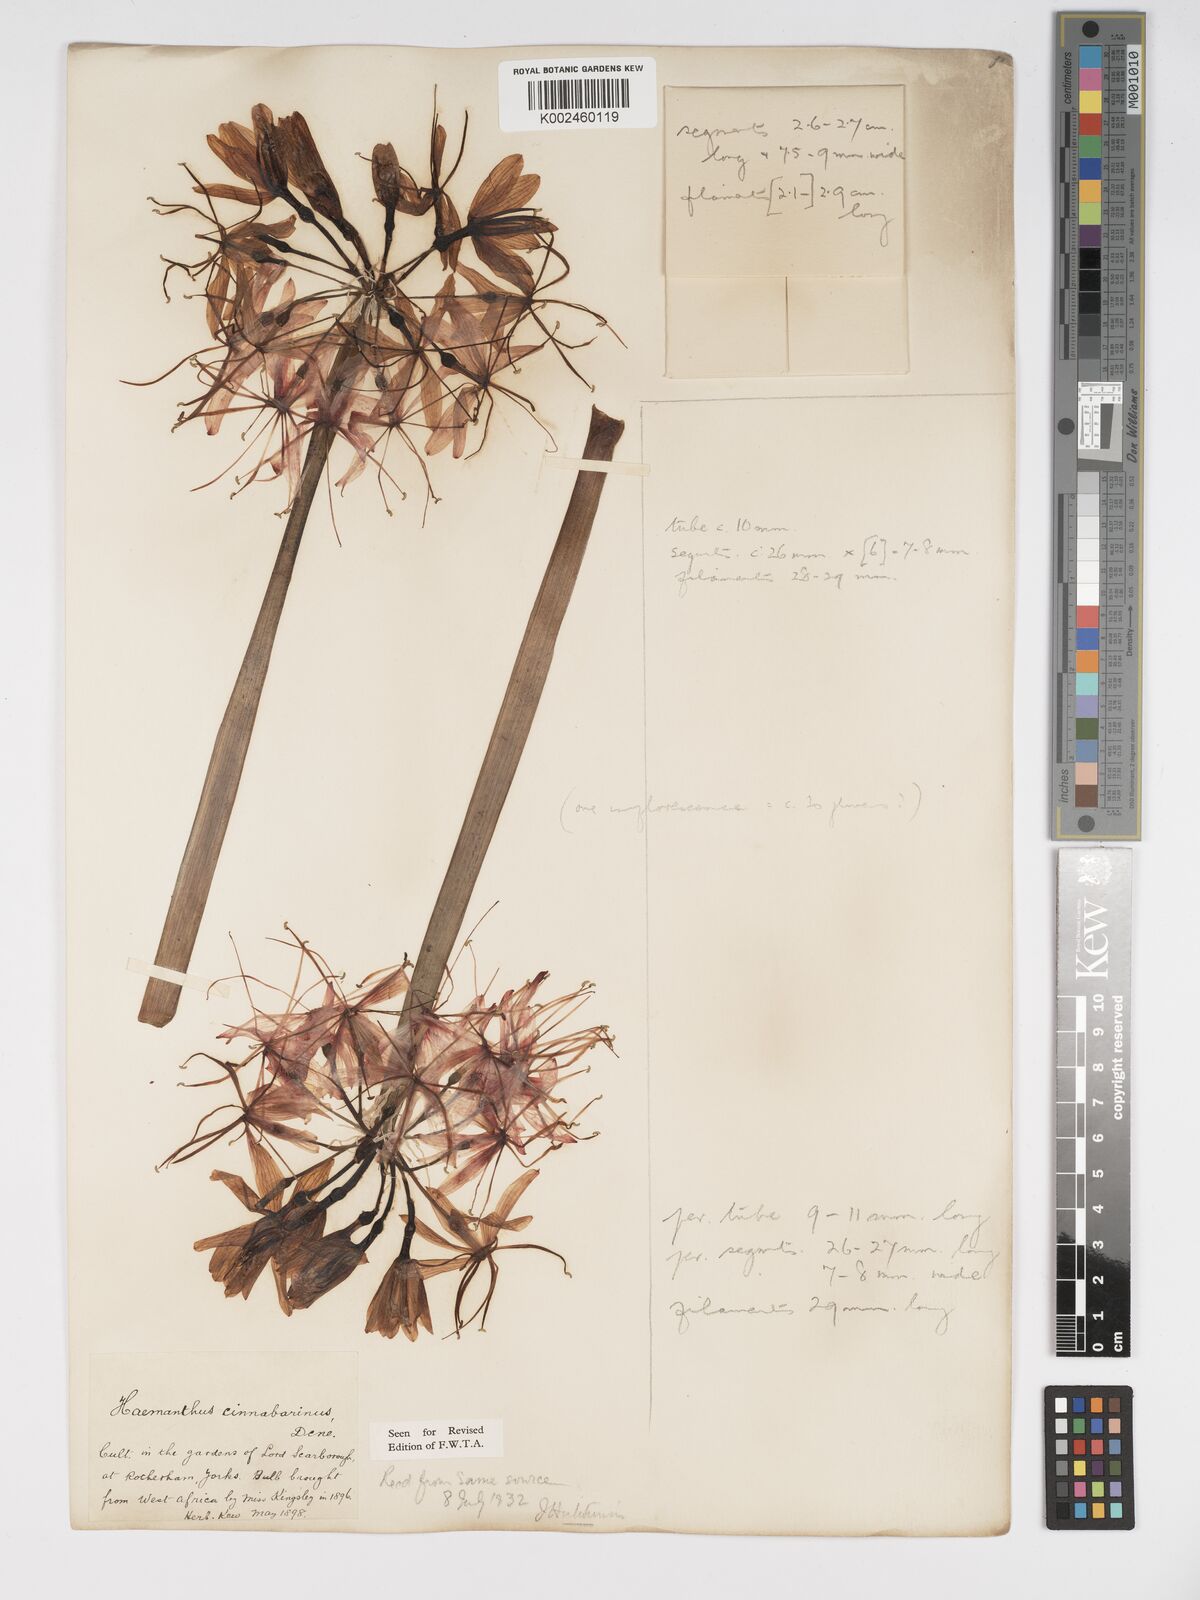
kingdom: Plantae
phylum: Tracheophyta
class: Liliopsida
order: Asparagales
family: Amaryllidaceae
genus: Scadoxus
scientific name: Scadoxus cinnabarinus
